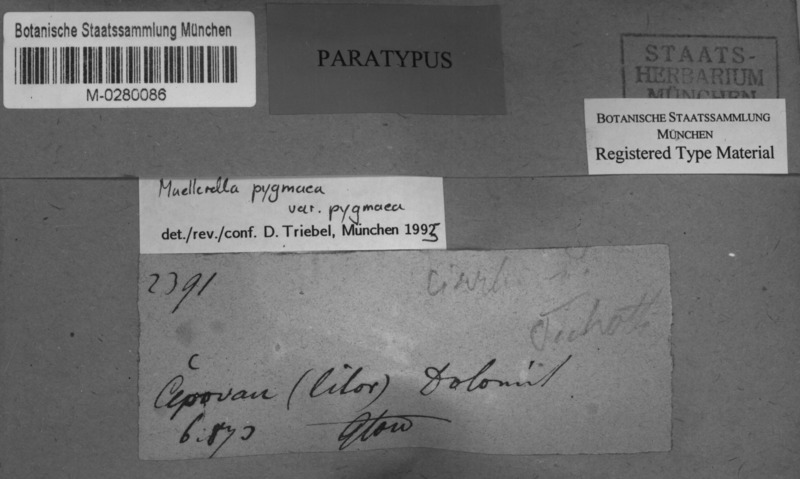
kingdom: Fungi
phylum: Ascomycota
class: Eurotiomycetes
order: Verrucariales
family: Verrucariaceae
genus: Muellerella
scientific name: Muellerella pygmaea
